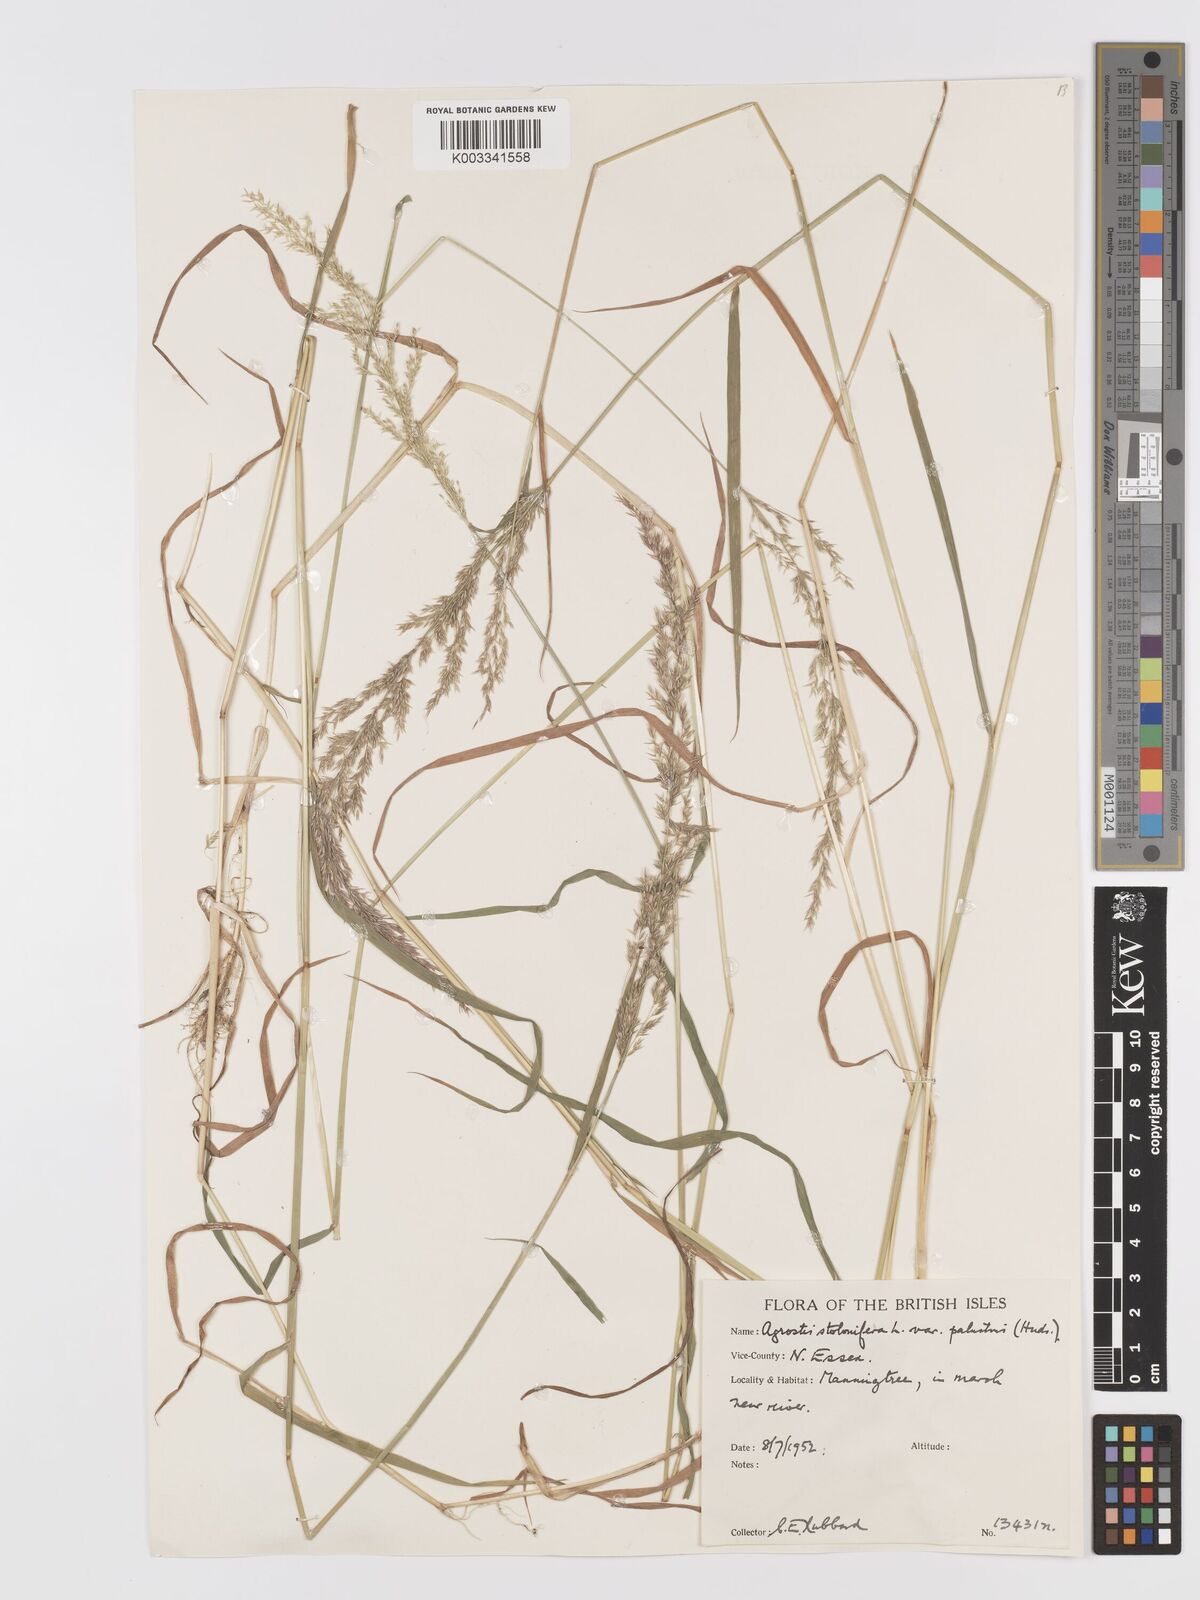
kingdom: Plantae
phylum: Tracheophyta
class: Liliopsida
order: Poales
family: Poaceae
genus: Agrostis
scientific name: Agrostis stolonifera
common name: Creeping bentgrass
